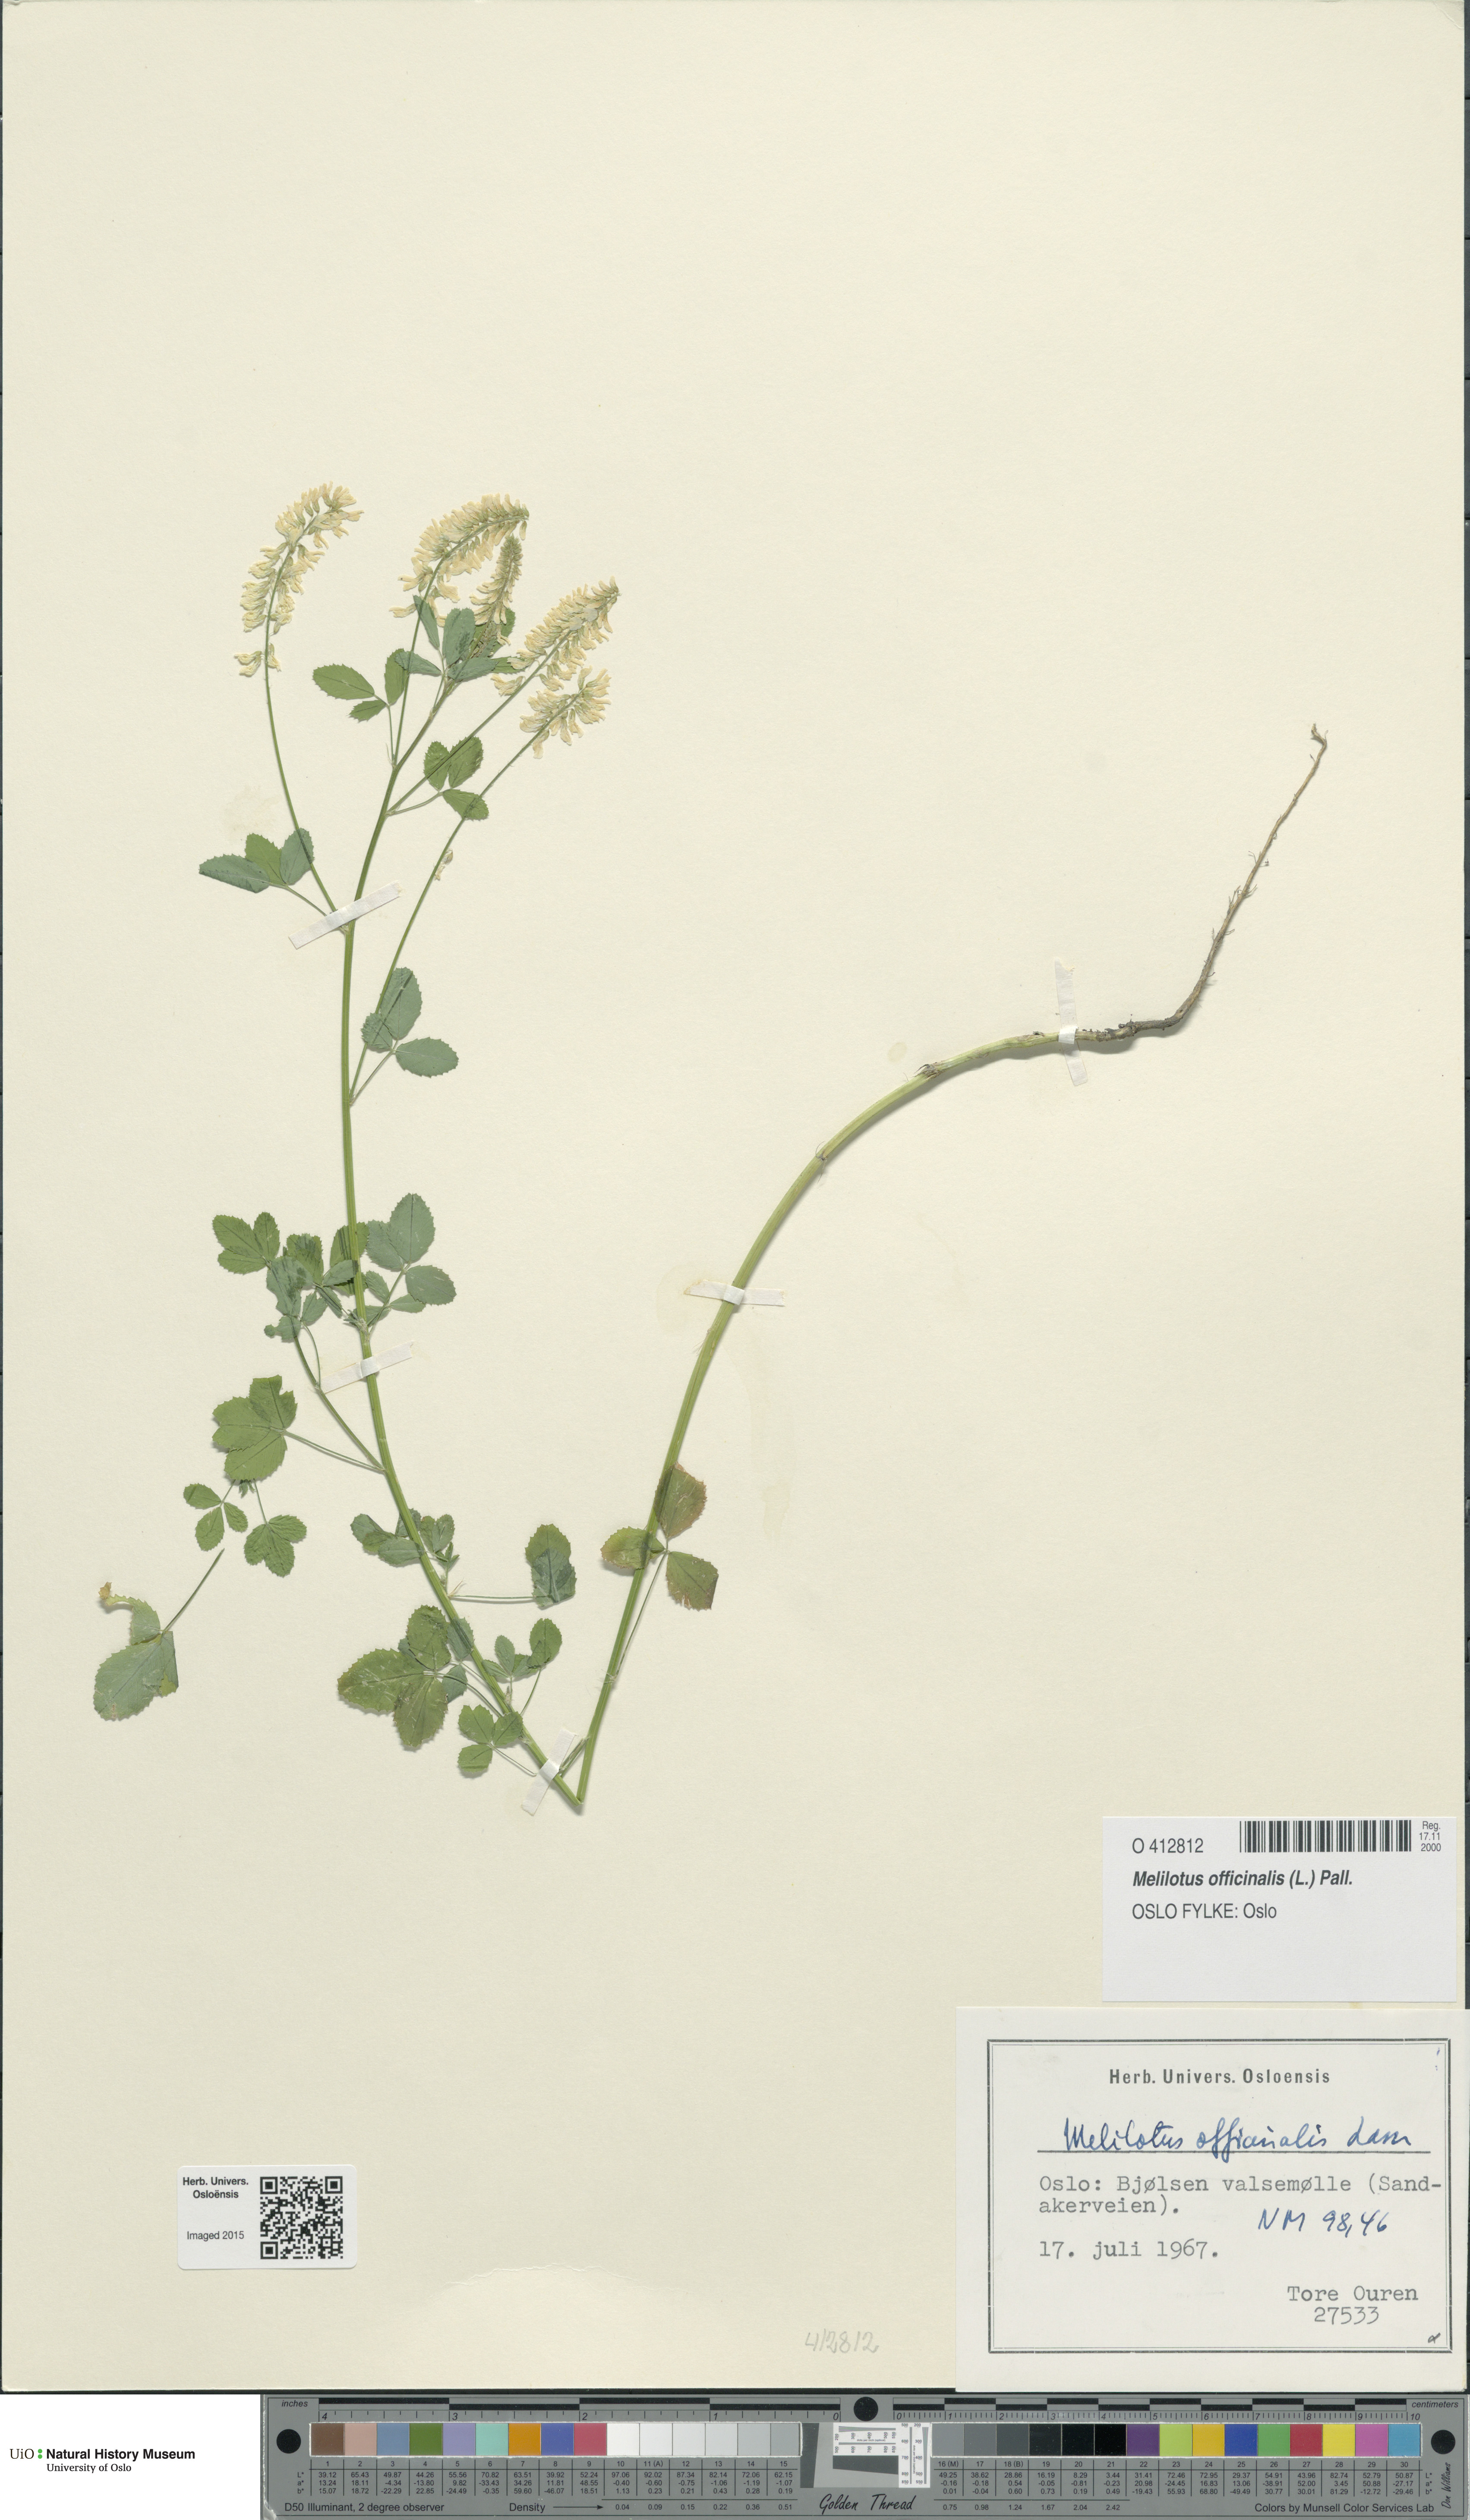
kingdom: Plantae
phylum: Tracheophyta
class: Magnoliopsida
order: Fabales
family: Fabaceae
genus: Melilotus
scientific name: Melilotus officinalis
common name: Sweetclover
